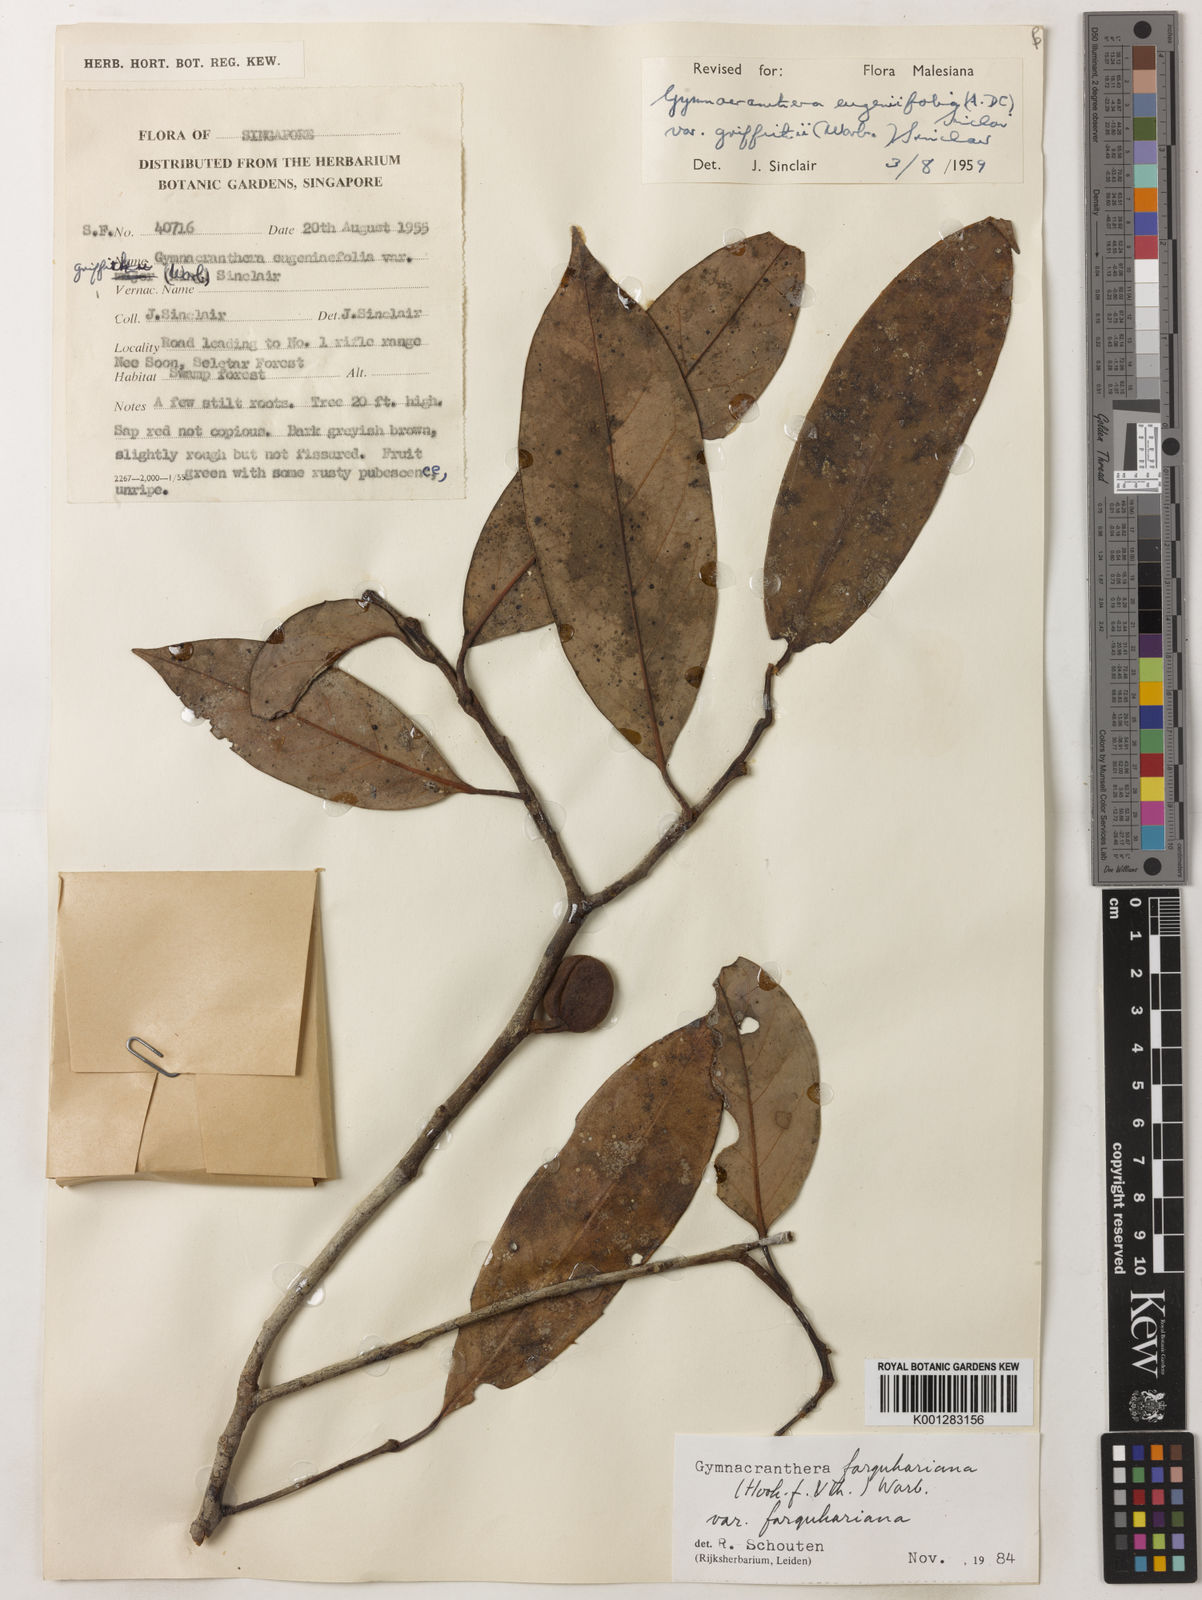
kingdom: Plantae
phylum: Tracheophyta
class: Magnoliopsida
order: Magnoliales
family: Myristicaceae
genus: Gymnacranthera
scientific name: Gymnacranthera farquhariana
